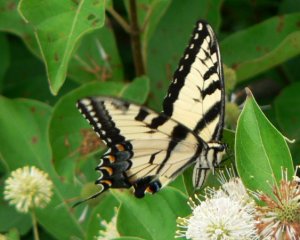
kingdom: Animalia
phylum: Arthropoda
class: Insecta
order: Lepidoptera
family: Papilionidae
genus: Pterourus
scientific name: Pterourus glaucus
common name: Eastern Tiger Swallowtail
